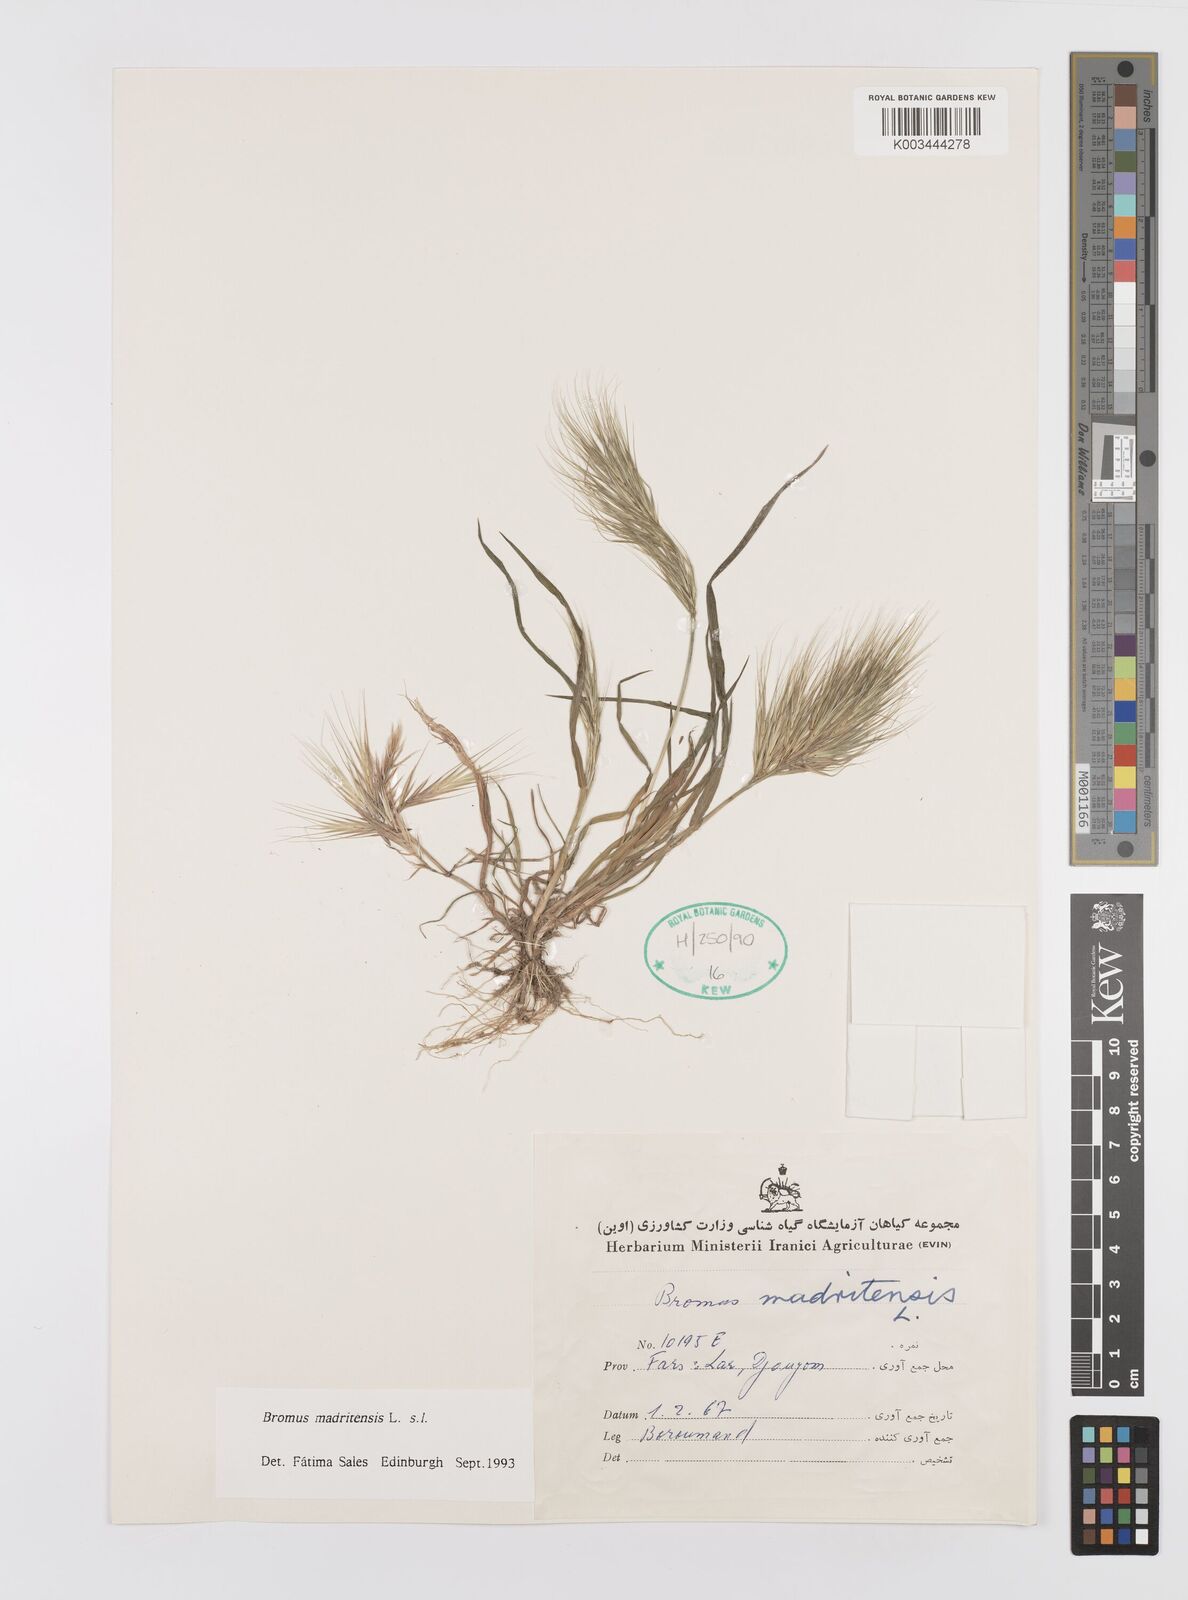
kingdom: Plantae
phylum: Tracheophyta
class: Liliopsida
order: Poales
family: Poaceae
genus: Bromus
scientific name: Bromus madritensis
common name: Compact brome
